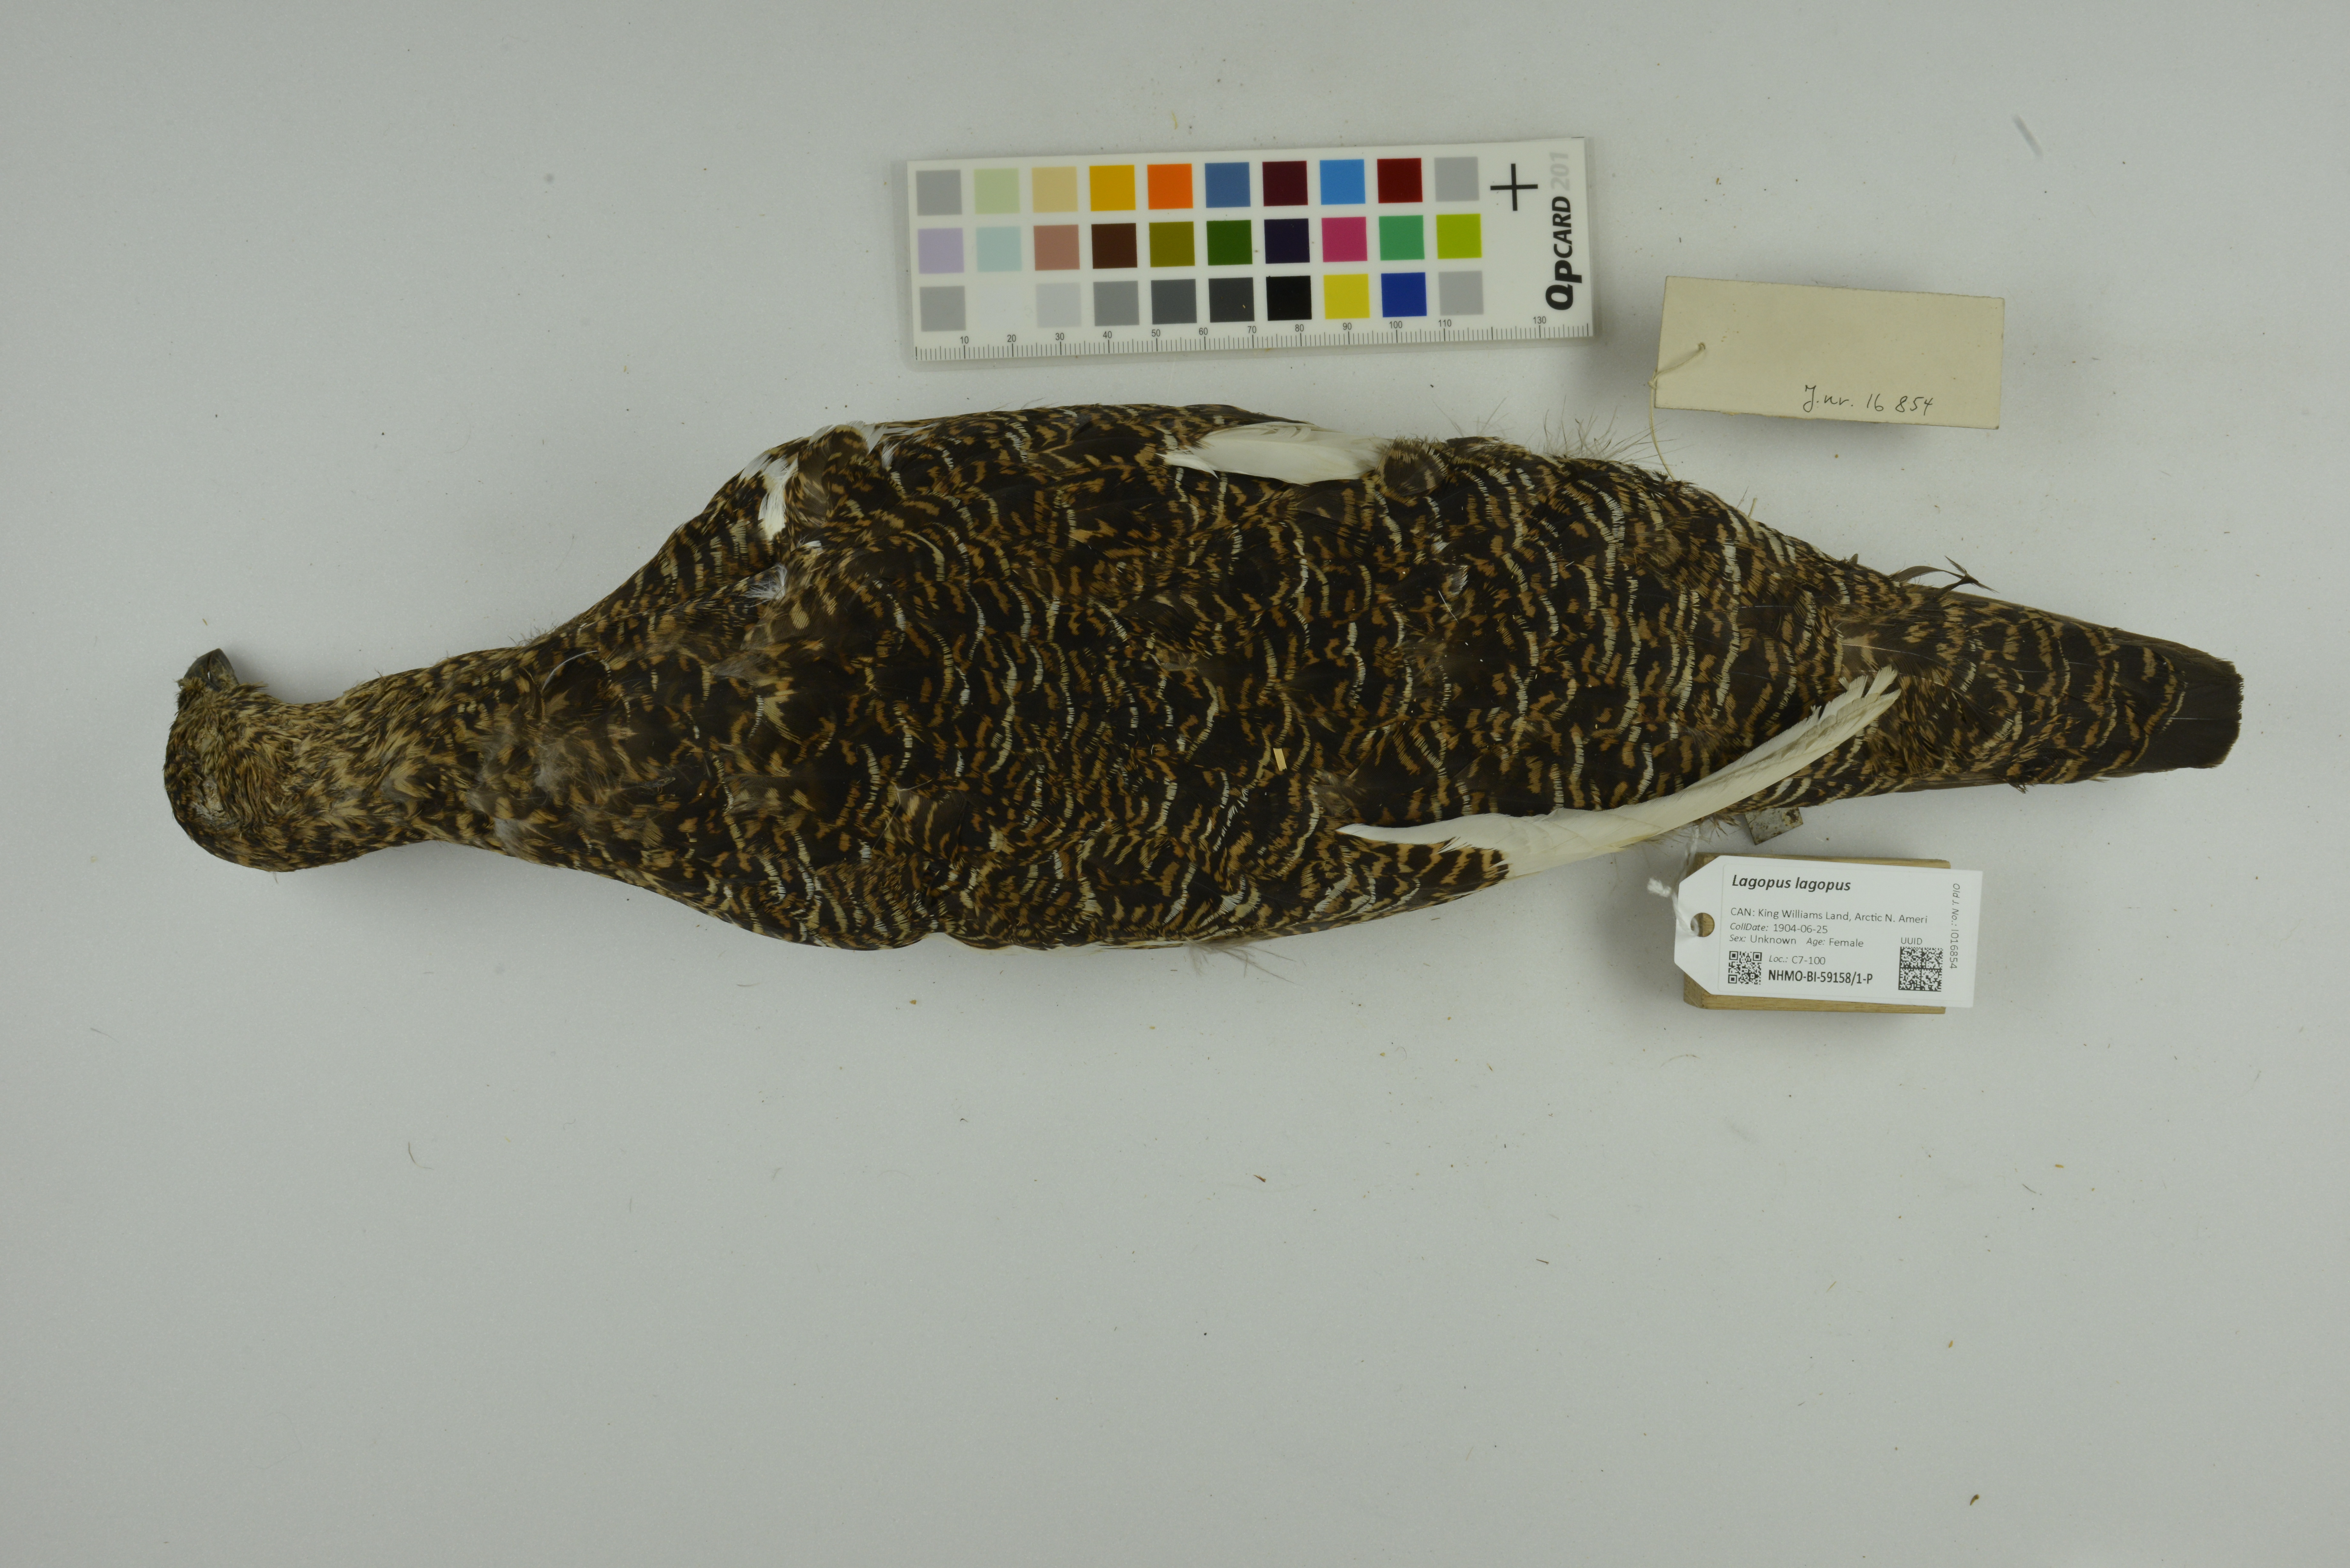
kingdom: Animalia
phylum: Chordata
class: Aves
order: Galliformes
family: Phasianidae
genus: Lagopus
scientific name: Lagopus lagopus
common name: Willow ptarmigan
